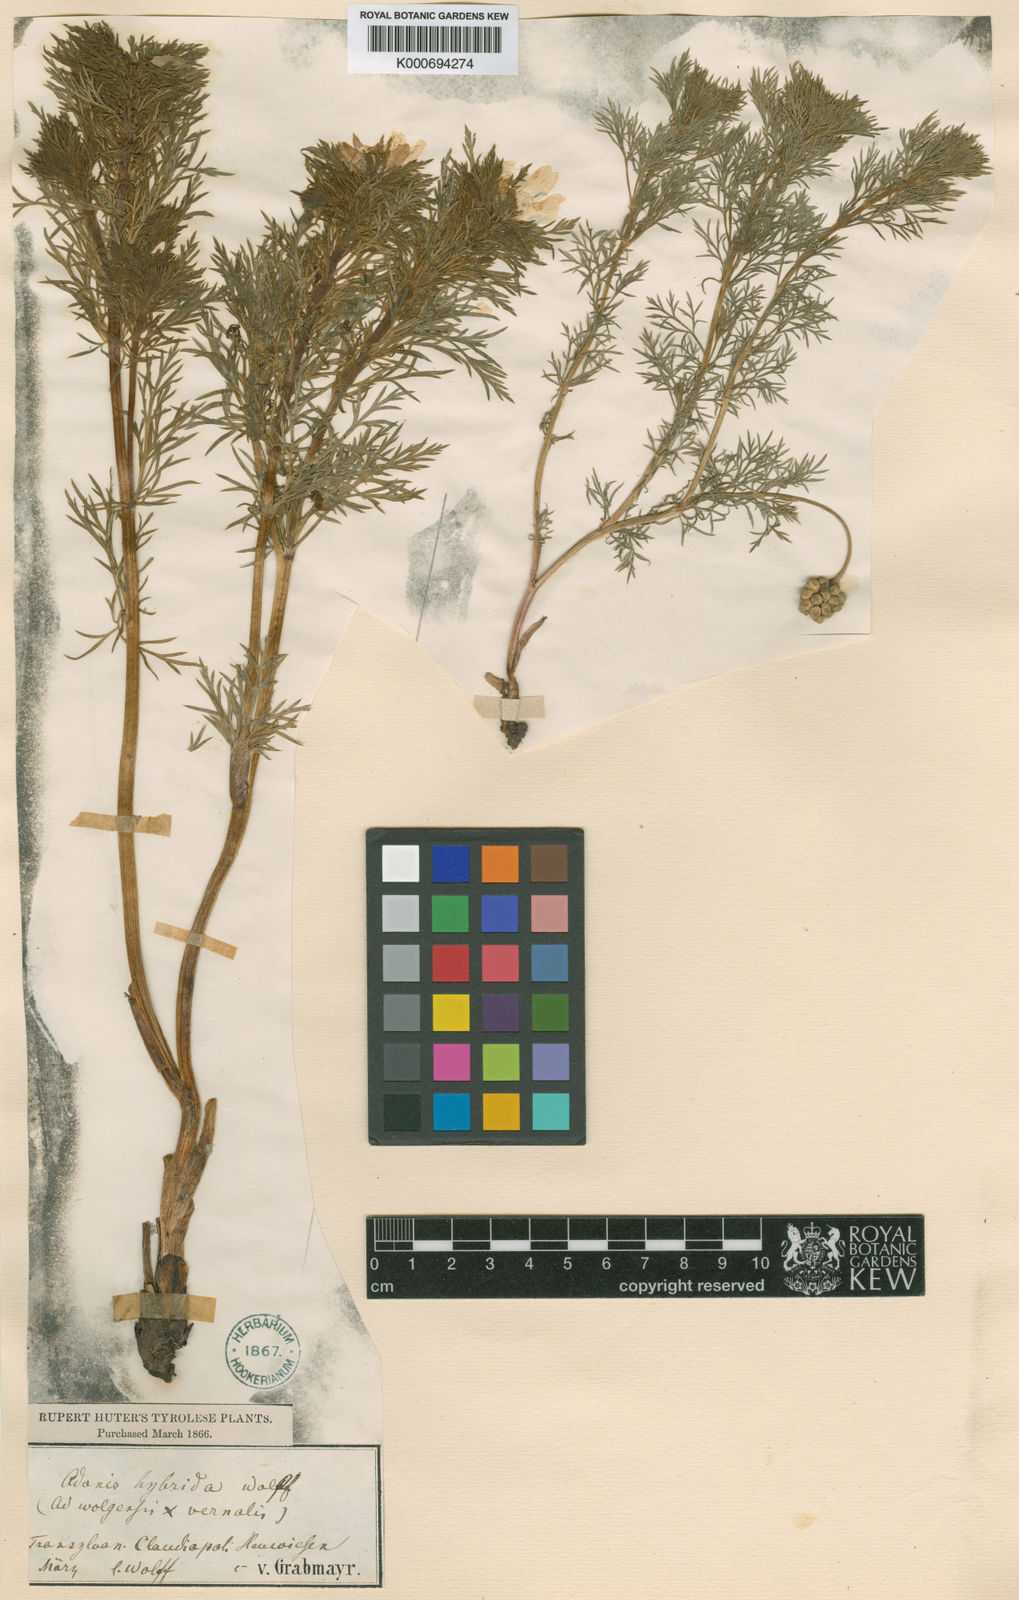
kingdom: Plantae
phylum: Tracheophyta
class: Magnoliopsida
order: Ranunculales
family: Ranunculaceae
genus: Adonis
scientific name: Adonis
